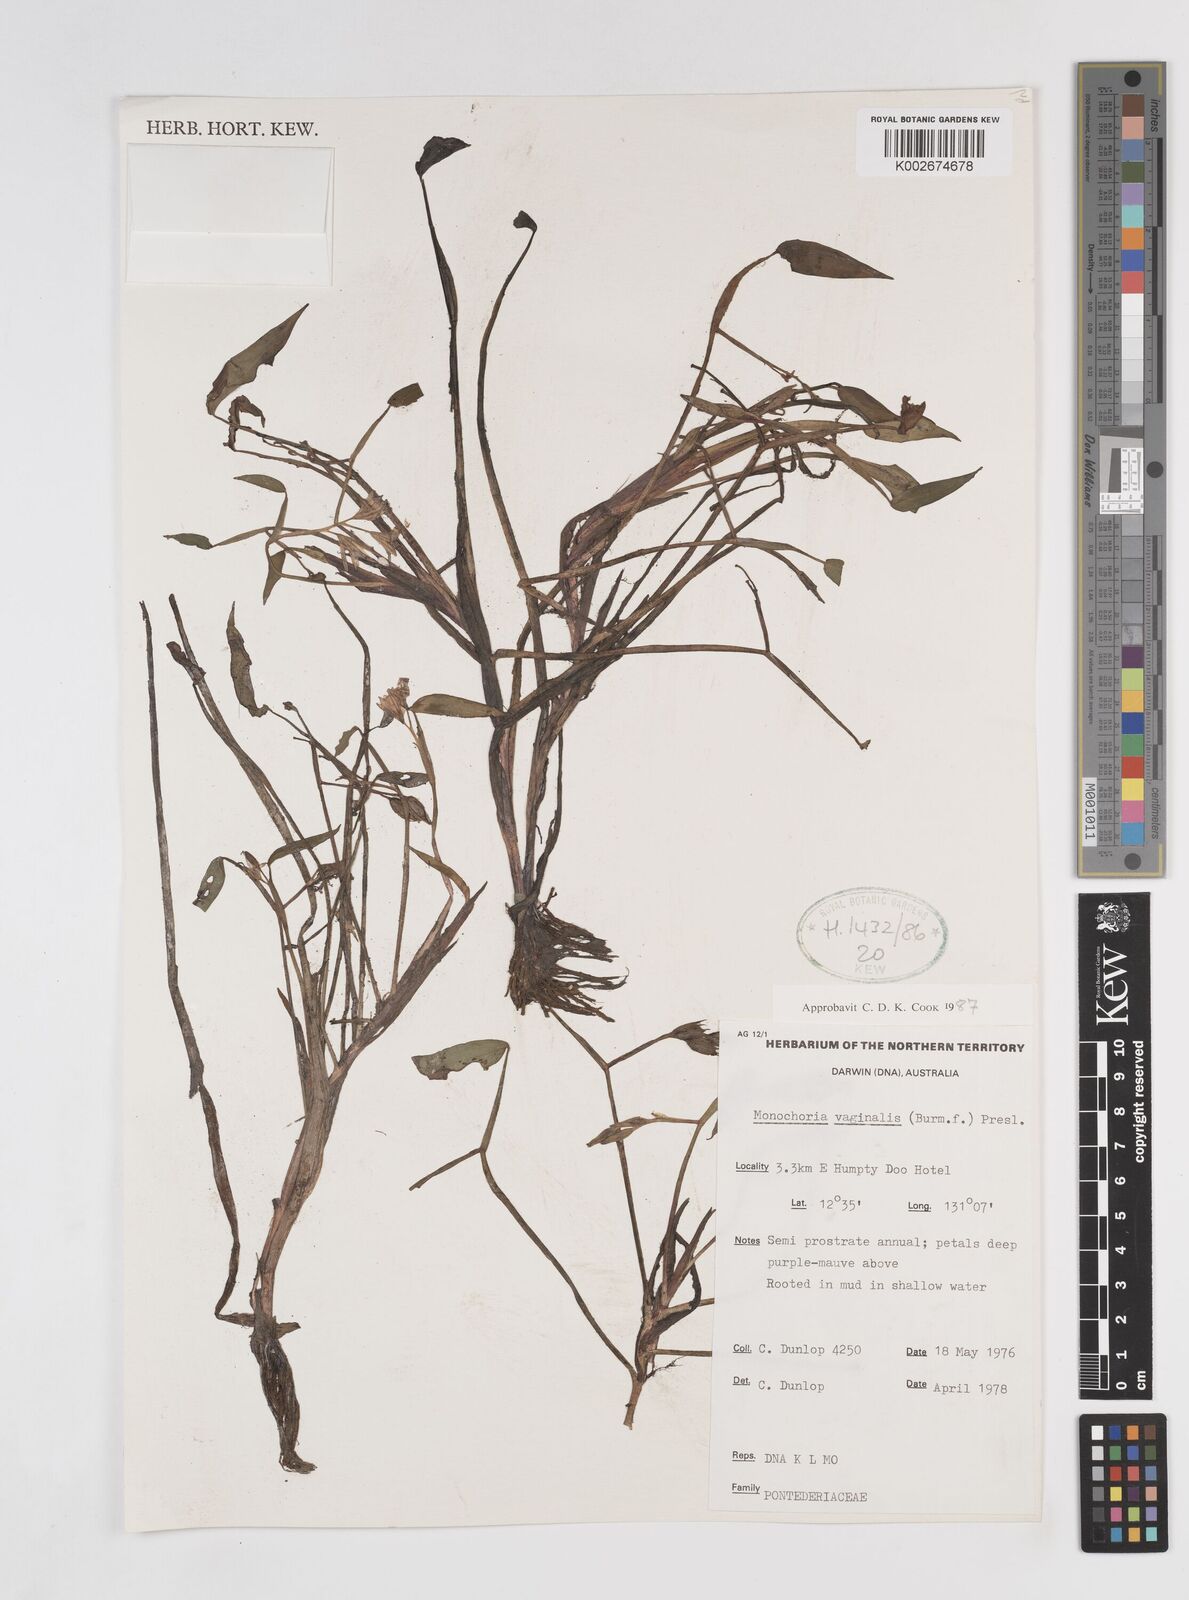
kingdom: Plantae
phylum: Tracheophyta
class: Liliopsida
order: Commelinales
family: Pontederiaceae
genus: Pontederia
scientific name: Pontederia vaginalis
